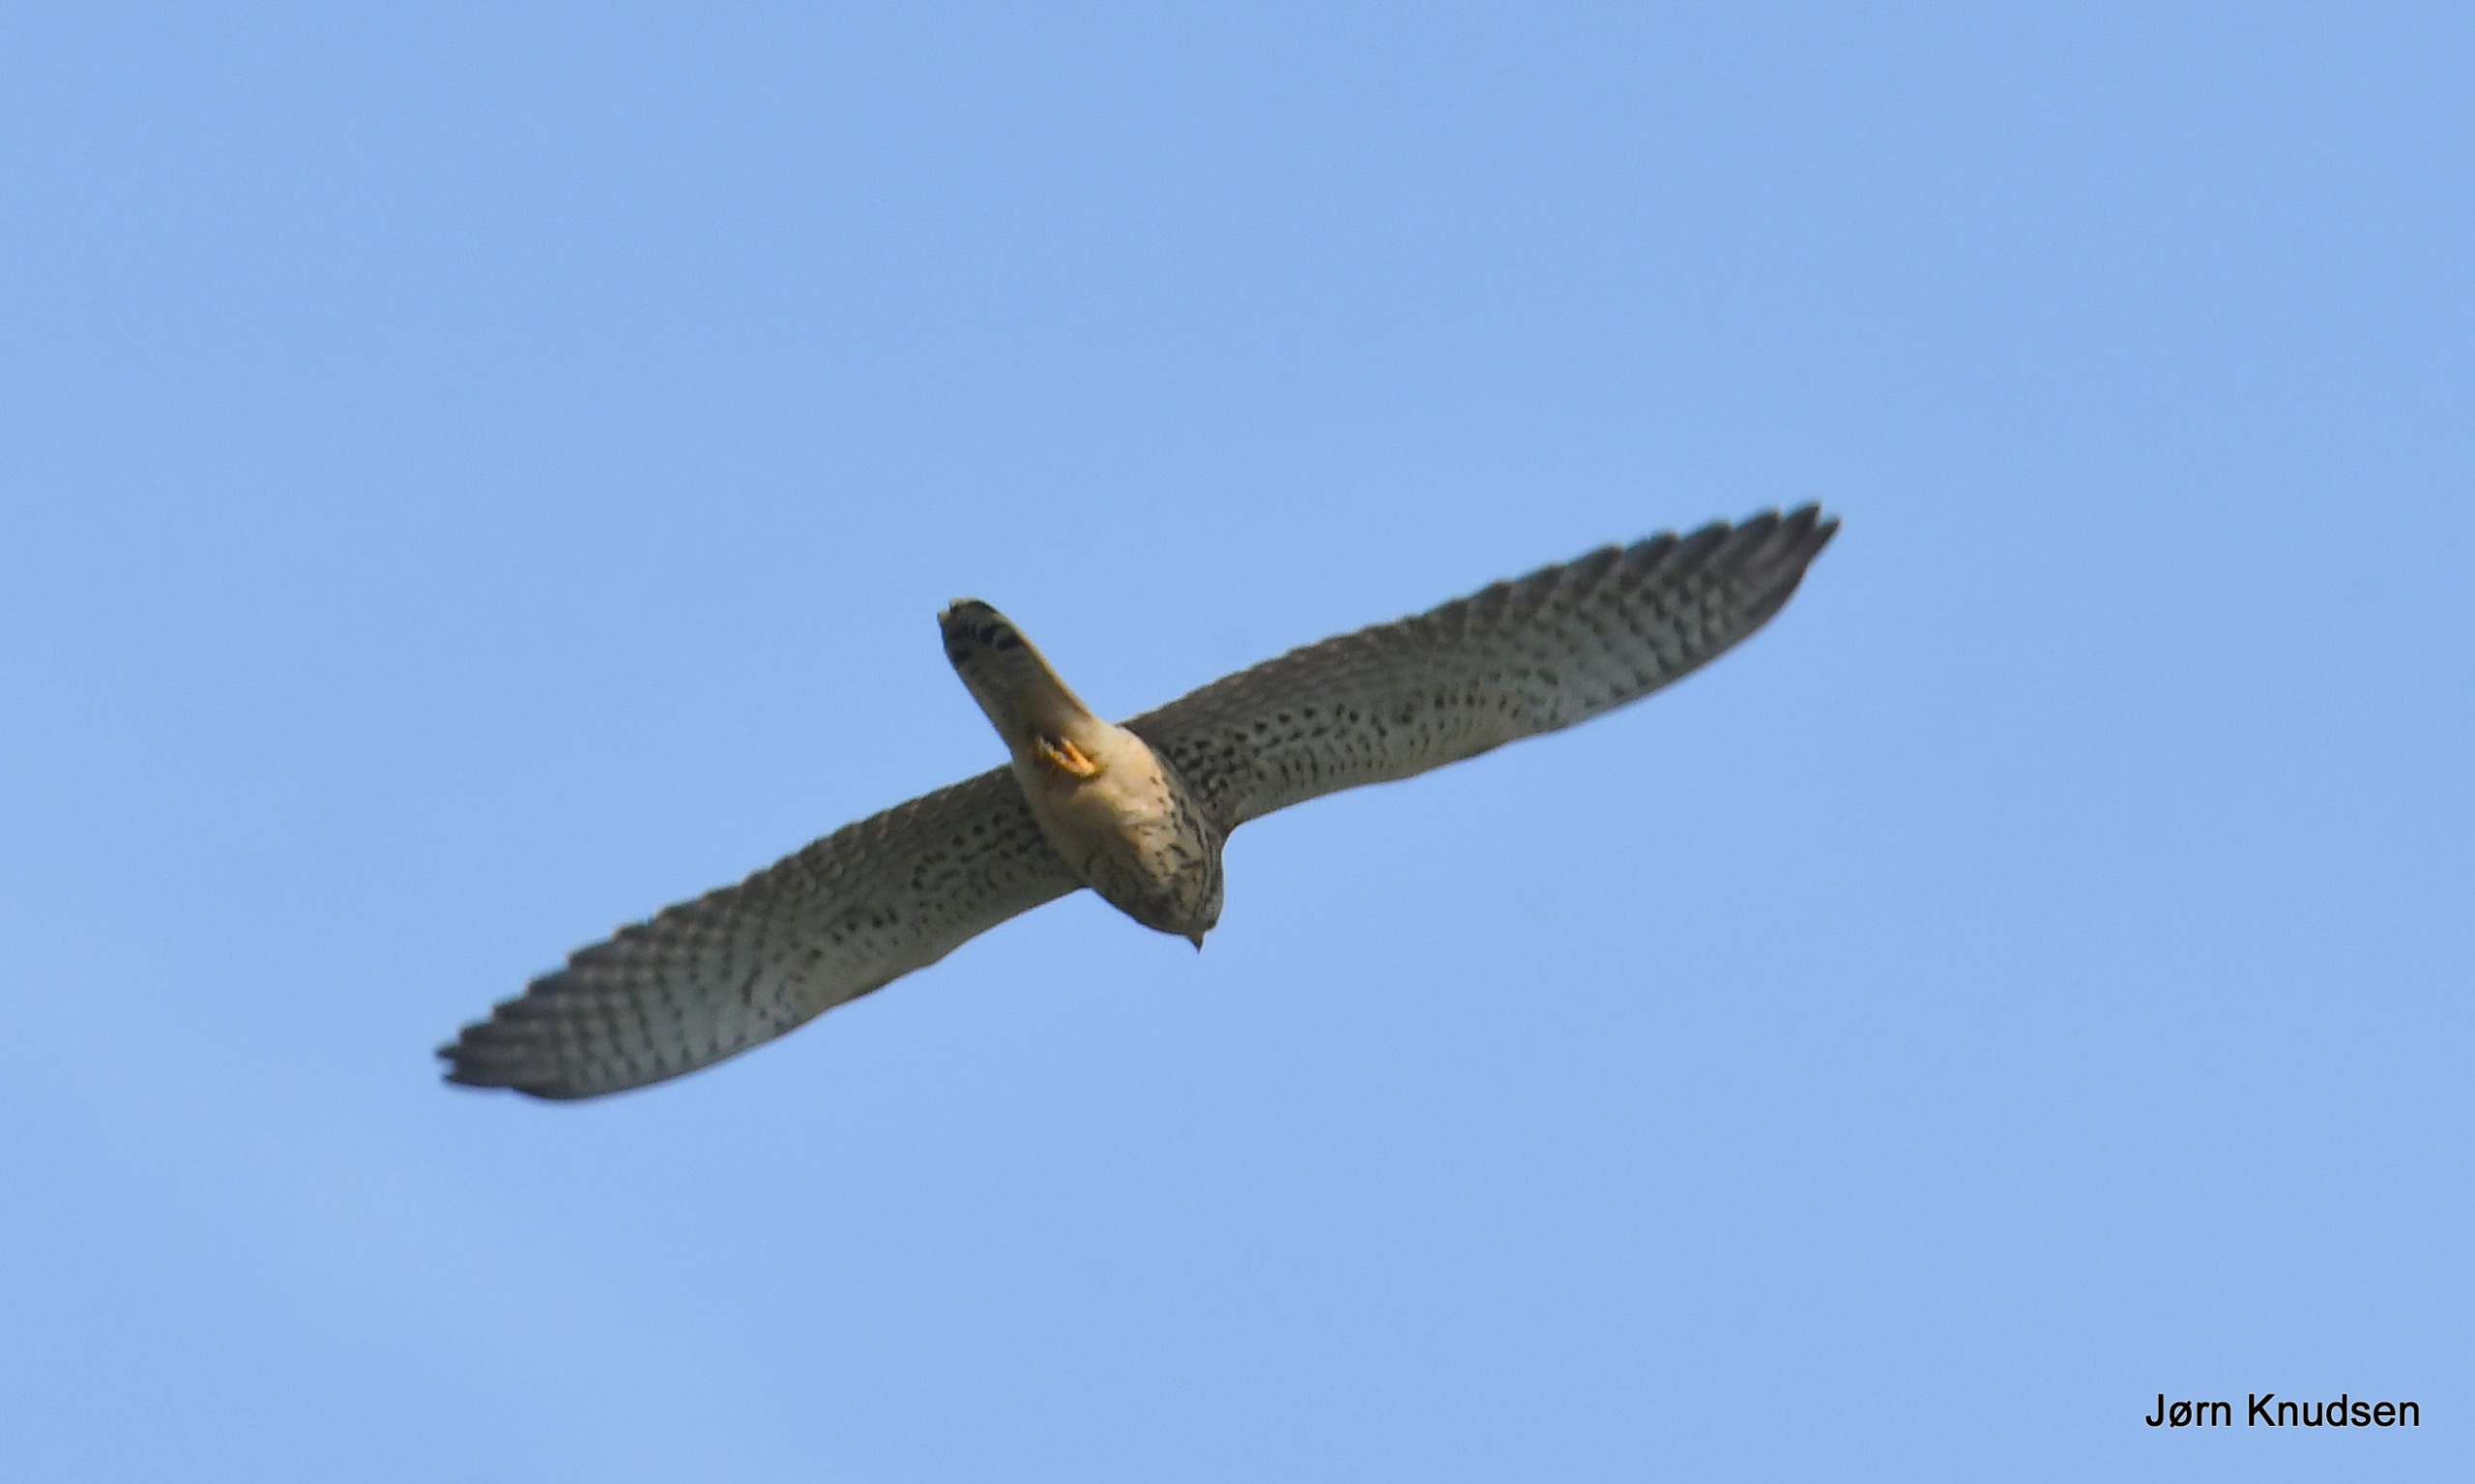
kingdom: Animalia
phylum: Chordata
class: Aves
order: Falconiformes
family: Falconidae
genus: Falco
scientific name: Falco tinnunculus
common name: Tårnfalk
